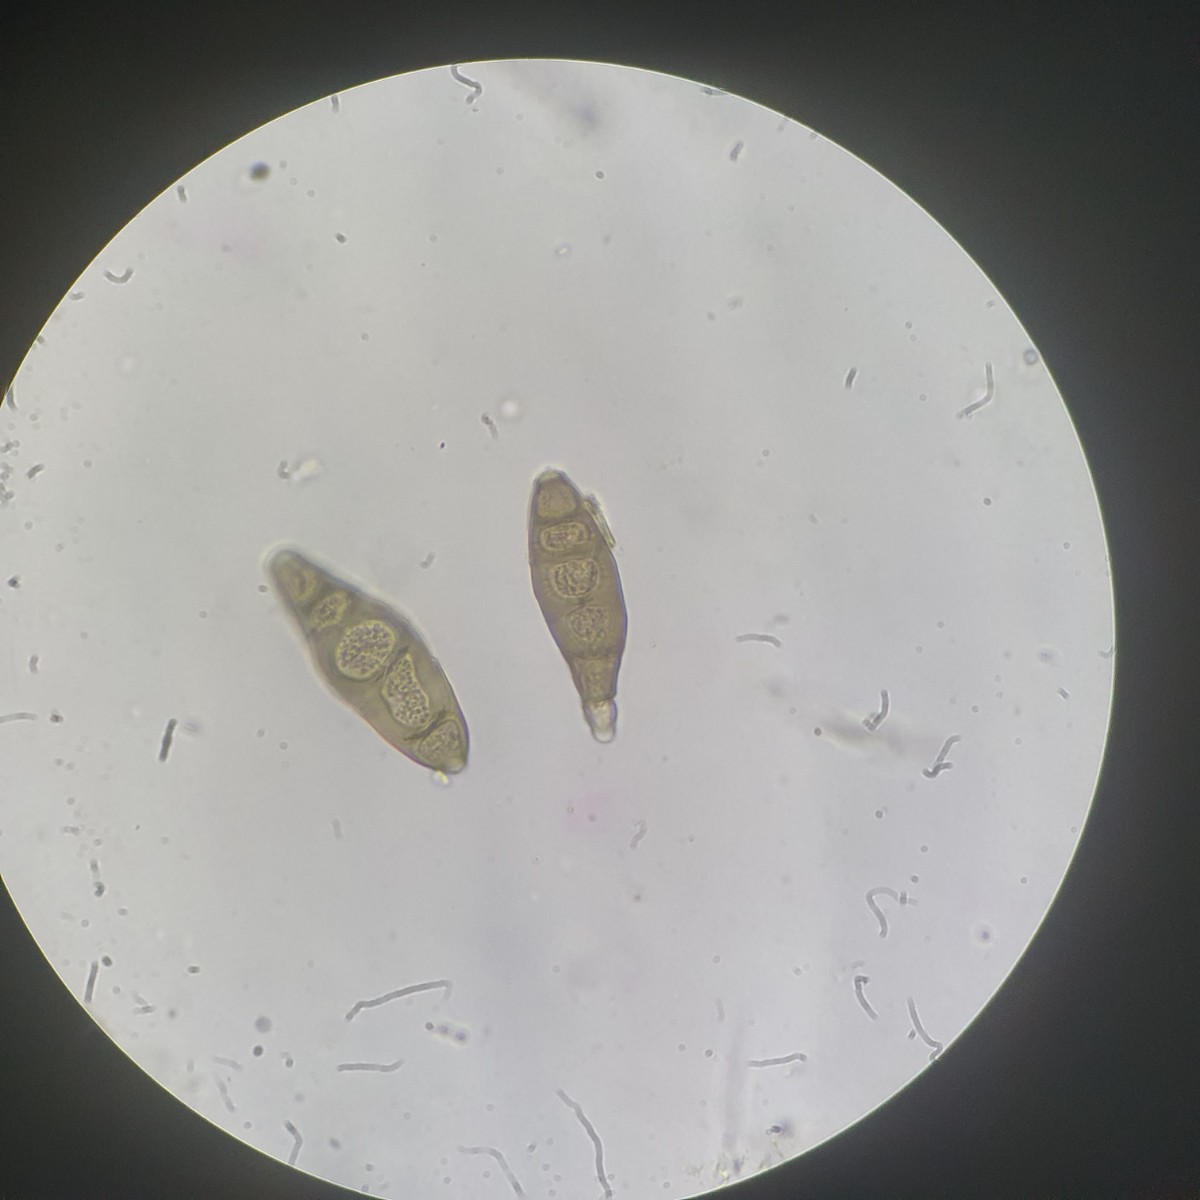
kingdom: Fungi
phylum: Ascomycota
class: Sordariomycetes
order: Diaporthales
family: Coryneaceae
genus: Coryneum
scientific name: Coryneum lanciforme
